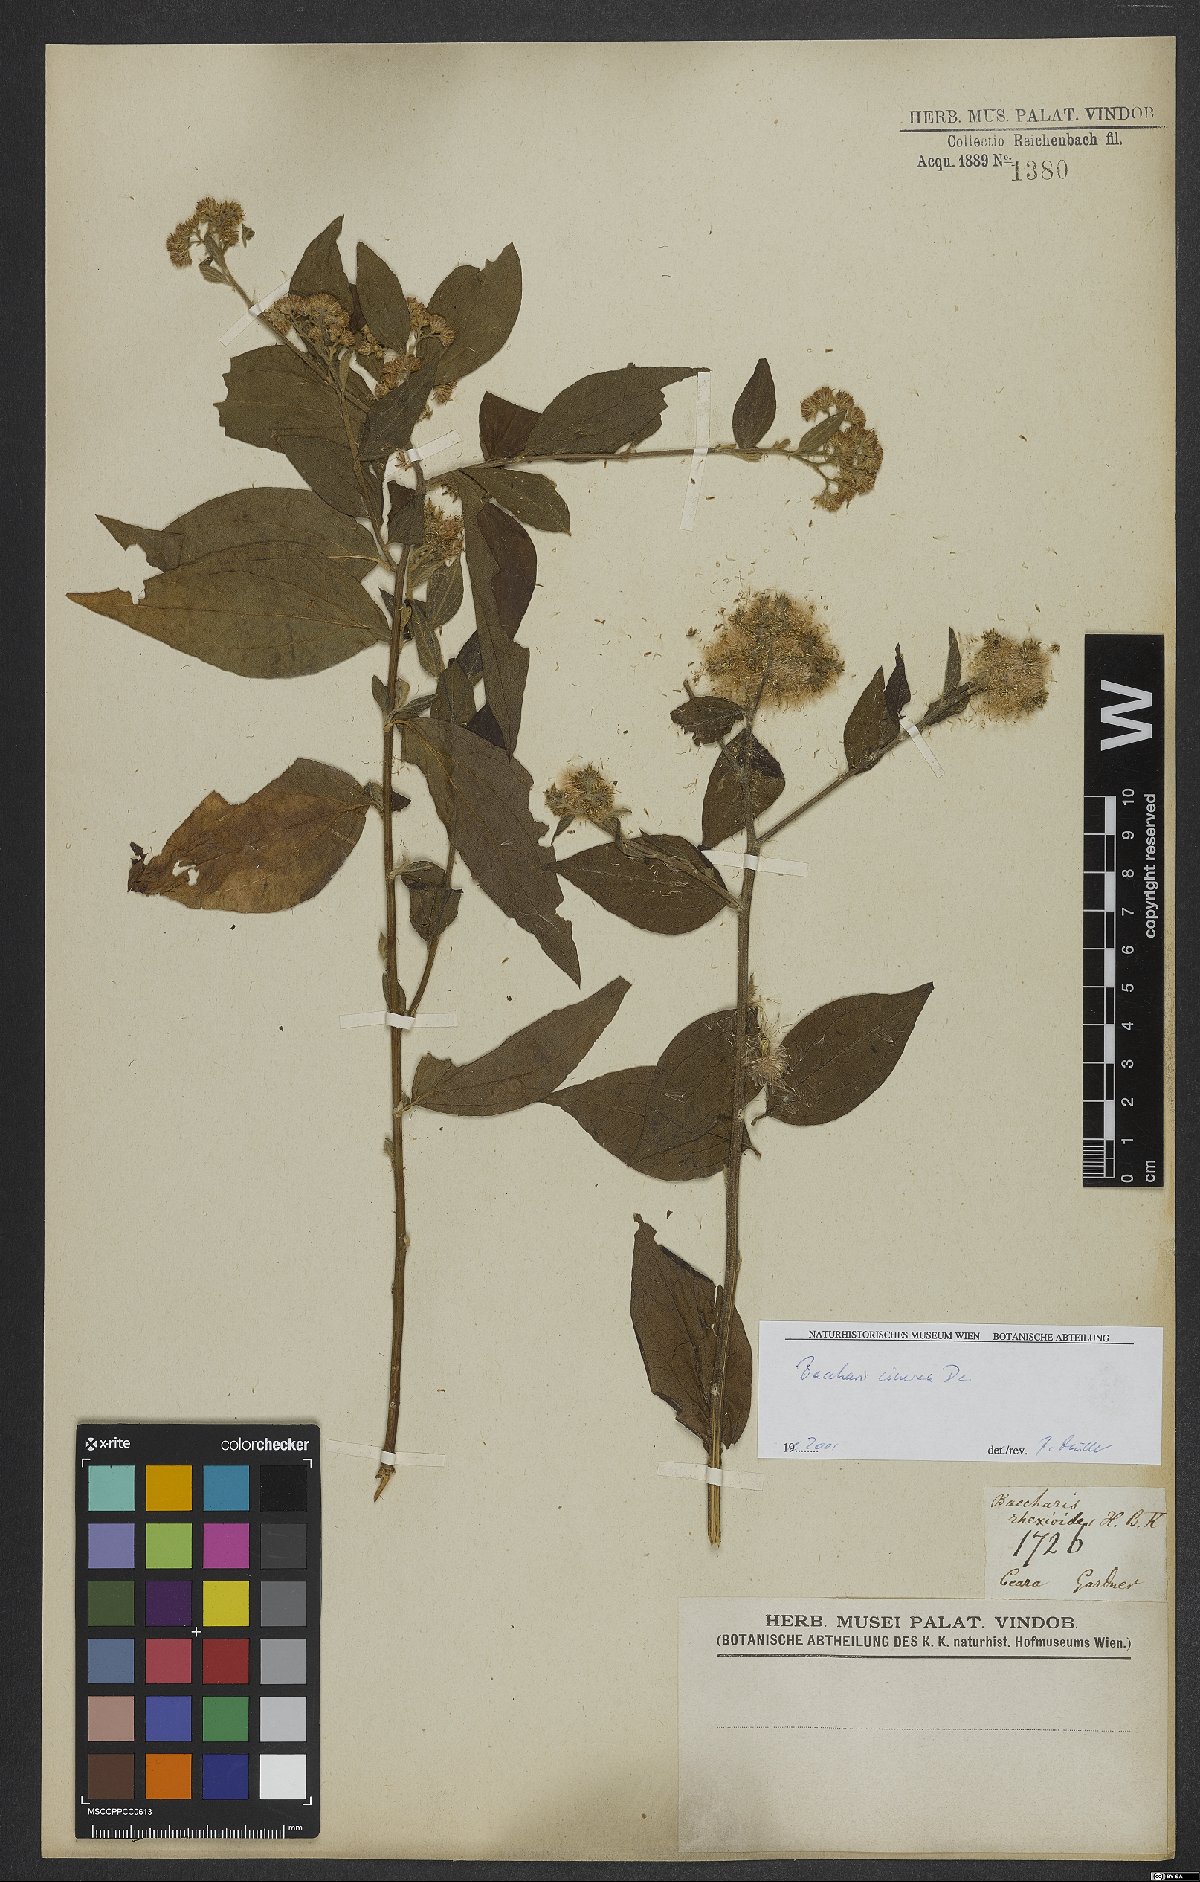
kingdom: Plantae
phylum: Tracheophyta
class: Magnoliopsida
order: Asterales
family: Asteraceae
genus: Baccharis
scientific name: Baccharis trinervis
